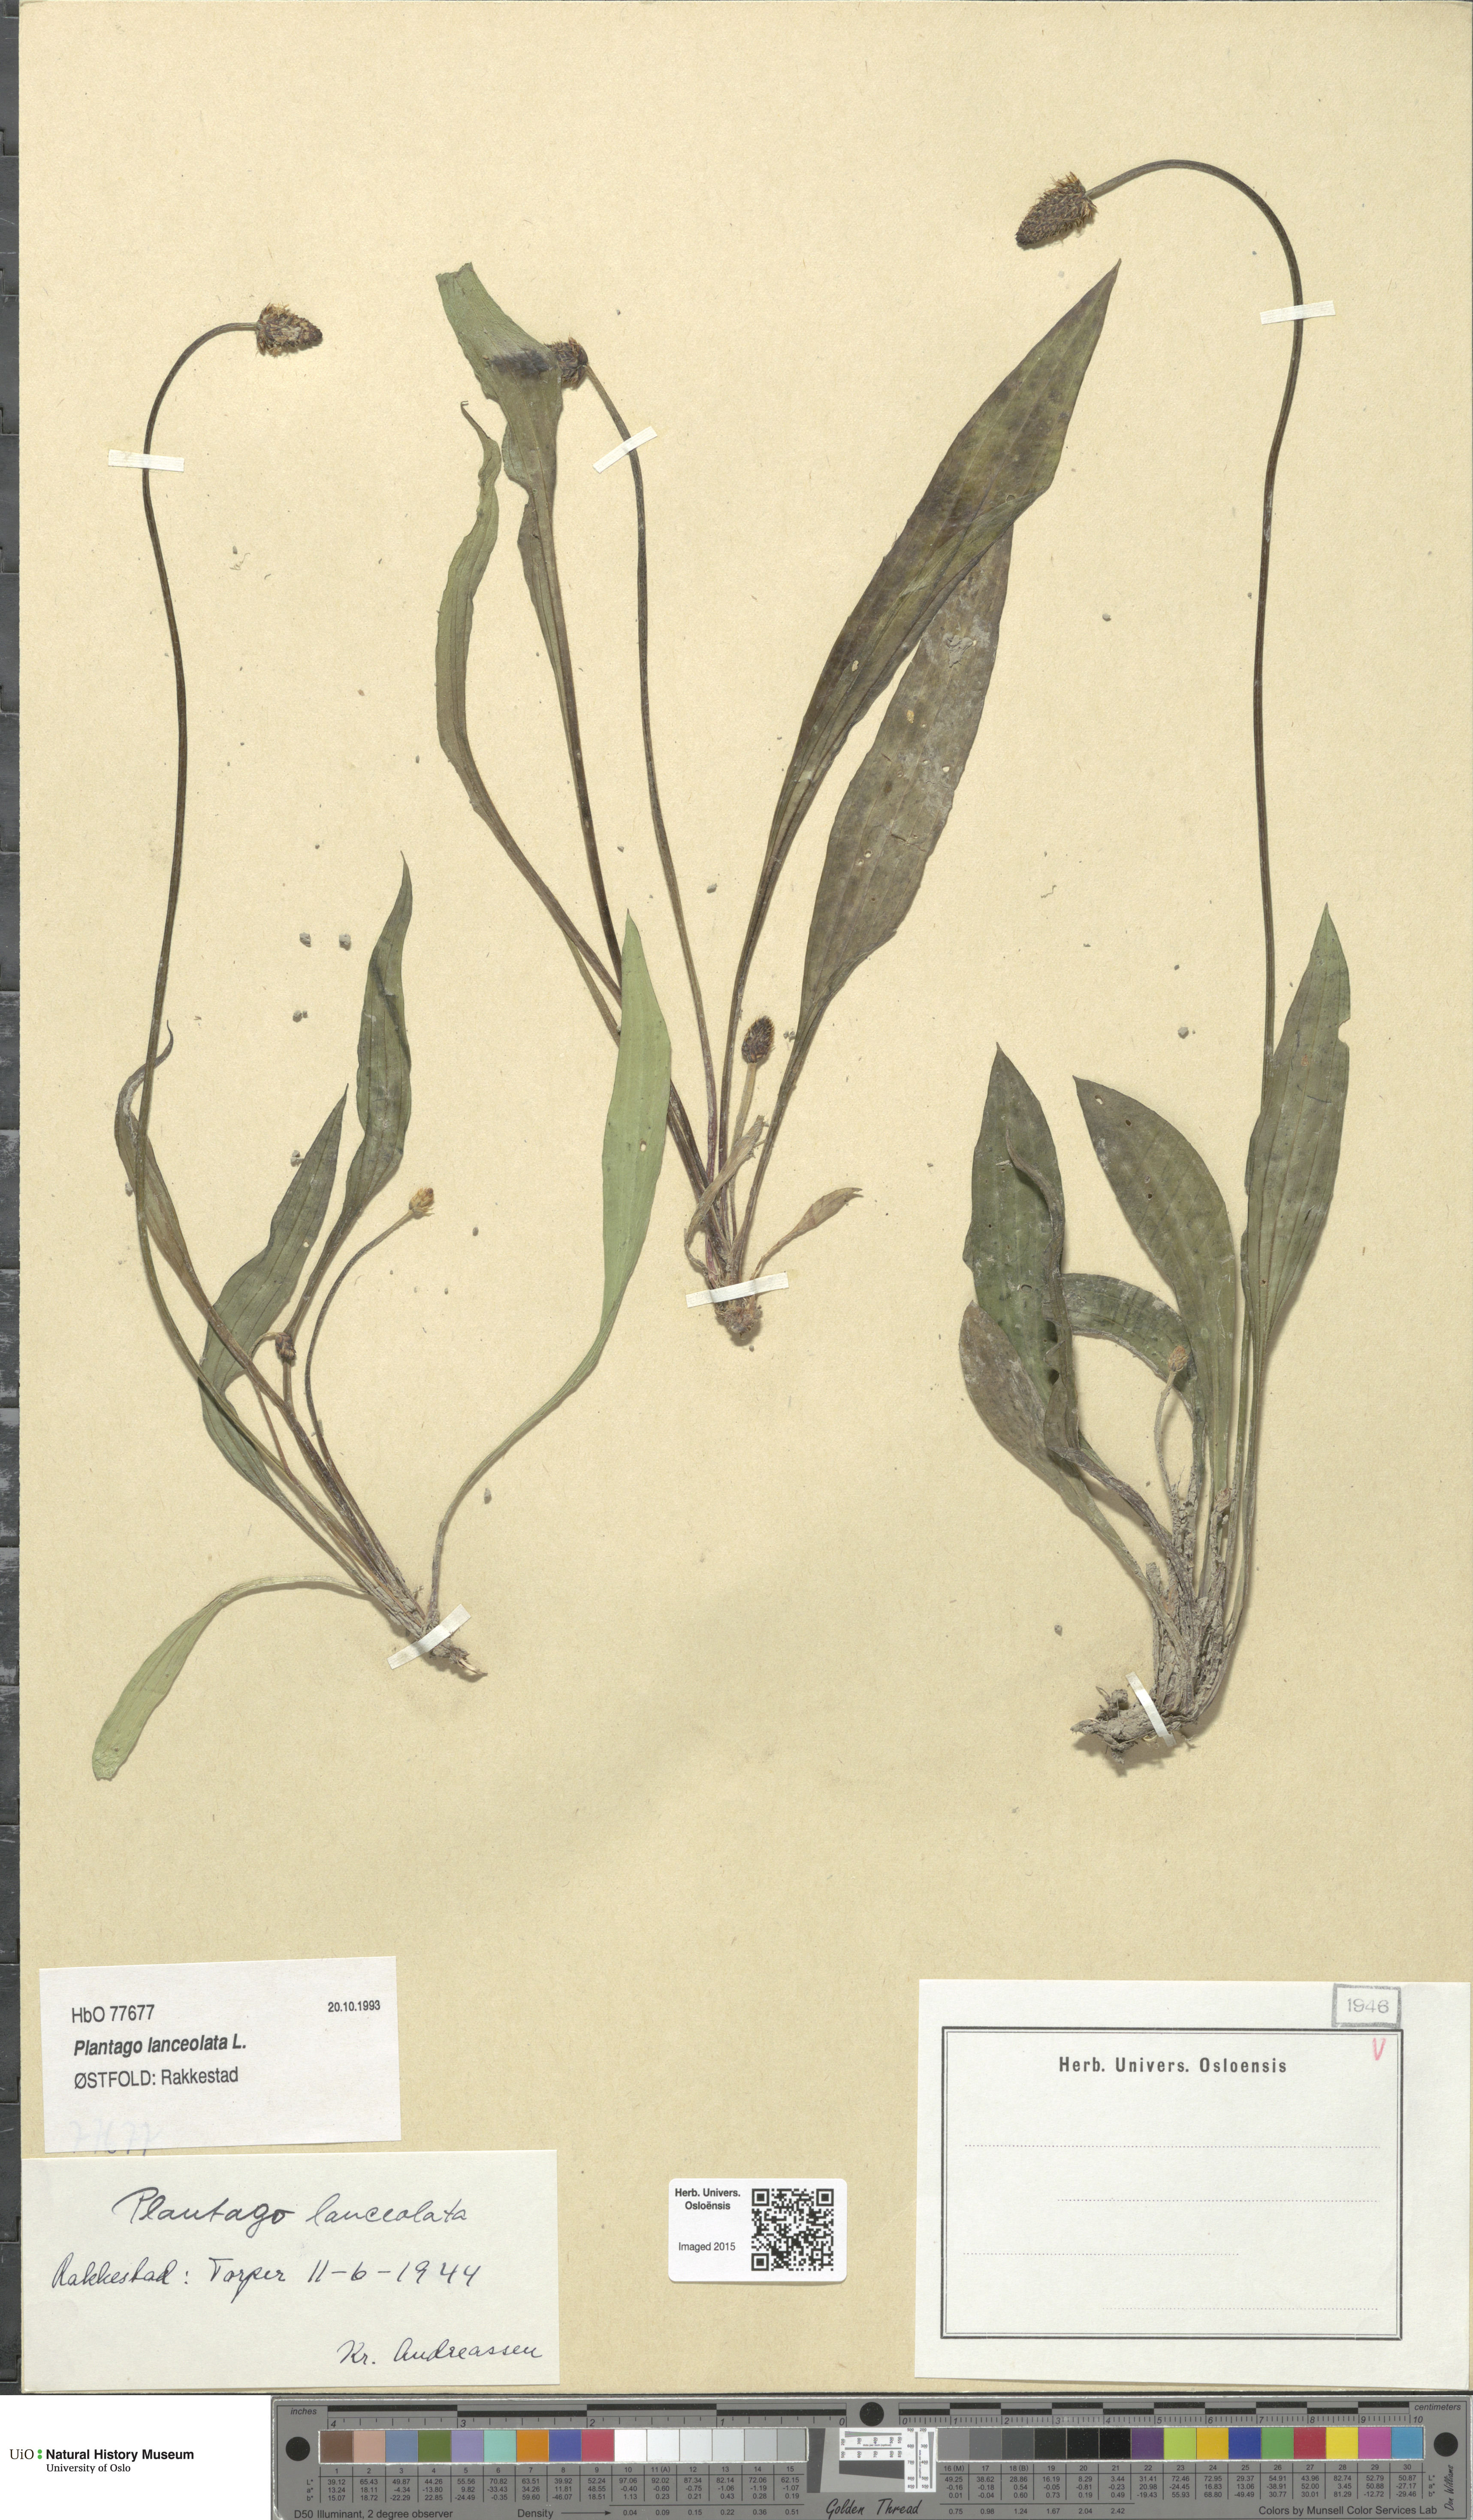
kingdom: Plantae
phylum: Tracheophyta
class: Magnoliopsida
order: Lamiales
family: Plantaginaceae
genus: Plantago
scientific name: Plantago lanceolata
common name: Ribwort plantain
